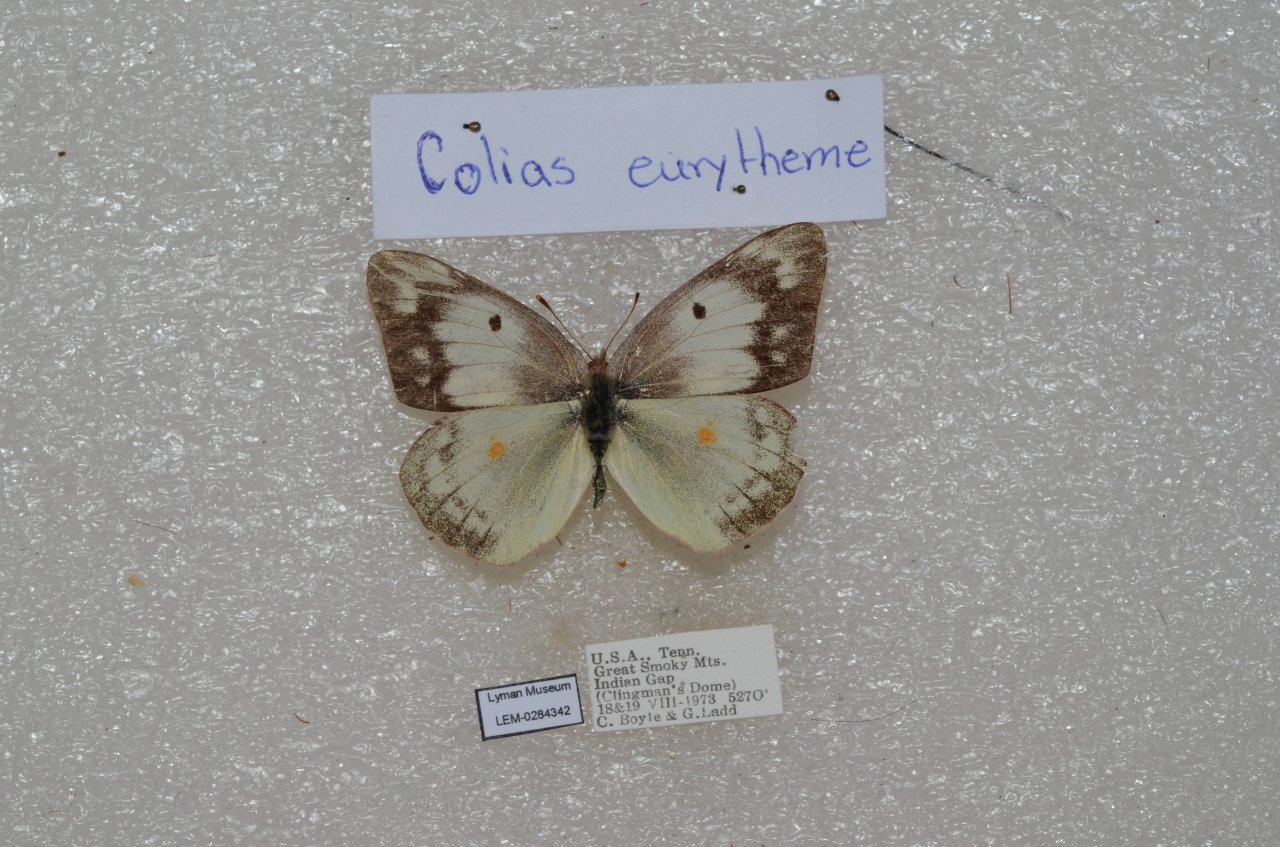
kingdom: Animalia
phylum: Arthropoda
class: Insecta
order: Lepidoptera
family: Pieridae
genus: Colias
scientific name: Colias eurytheme
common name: Orange Sulphur
